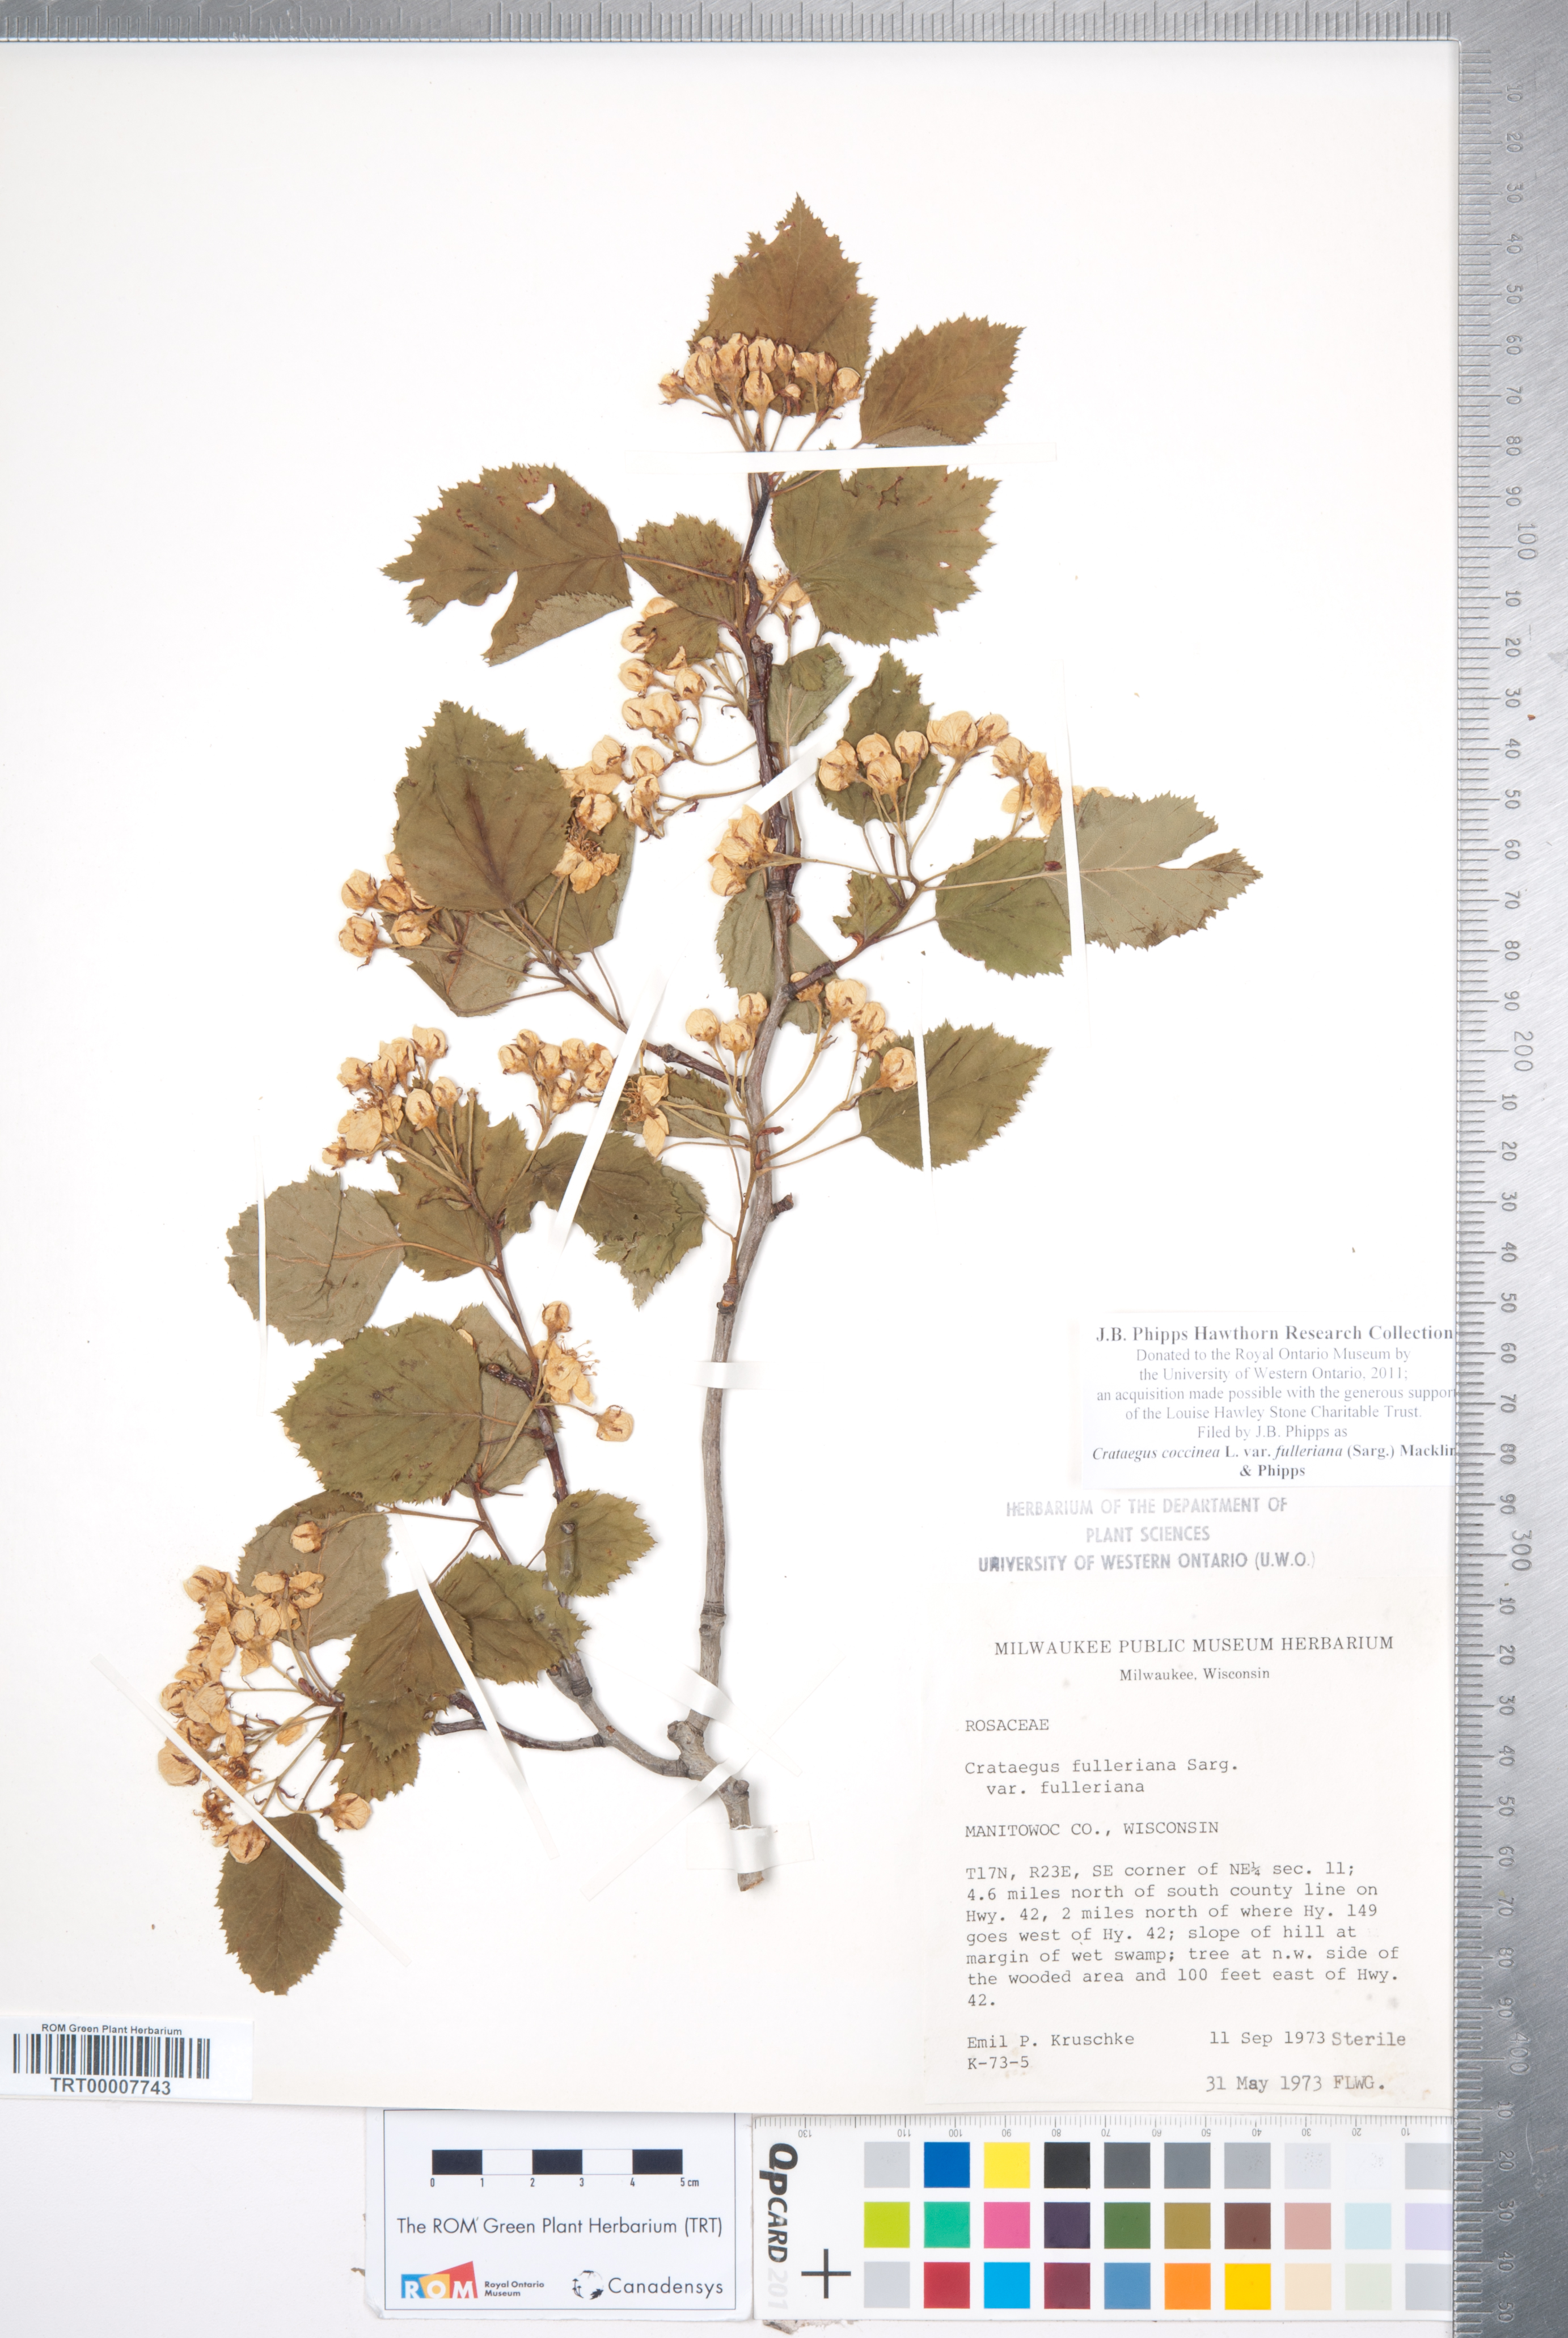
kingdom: Plantae
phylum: Tracheophyta
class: Magnoliopsida
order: Rosales
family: Rosaceae
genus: Crataegus
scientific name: Crataegus coccinea
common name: Scarlet hawthorn
